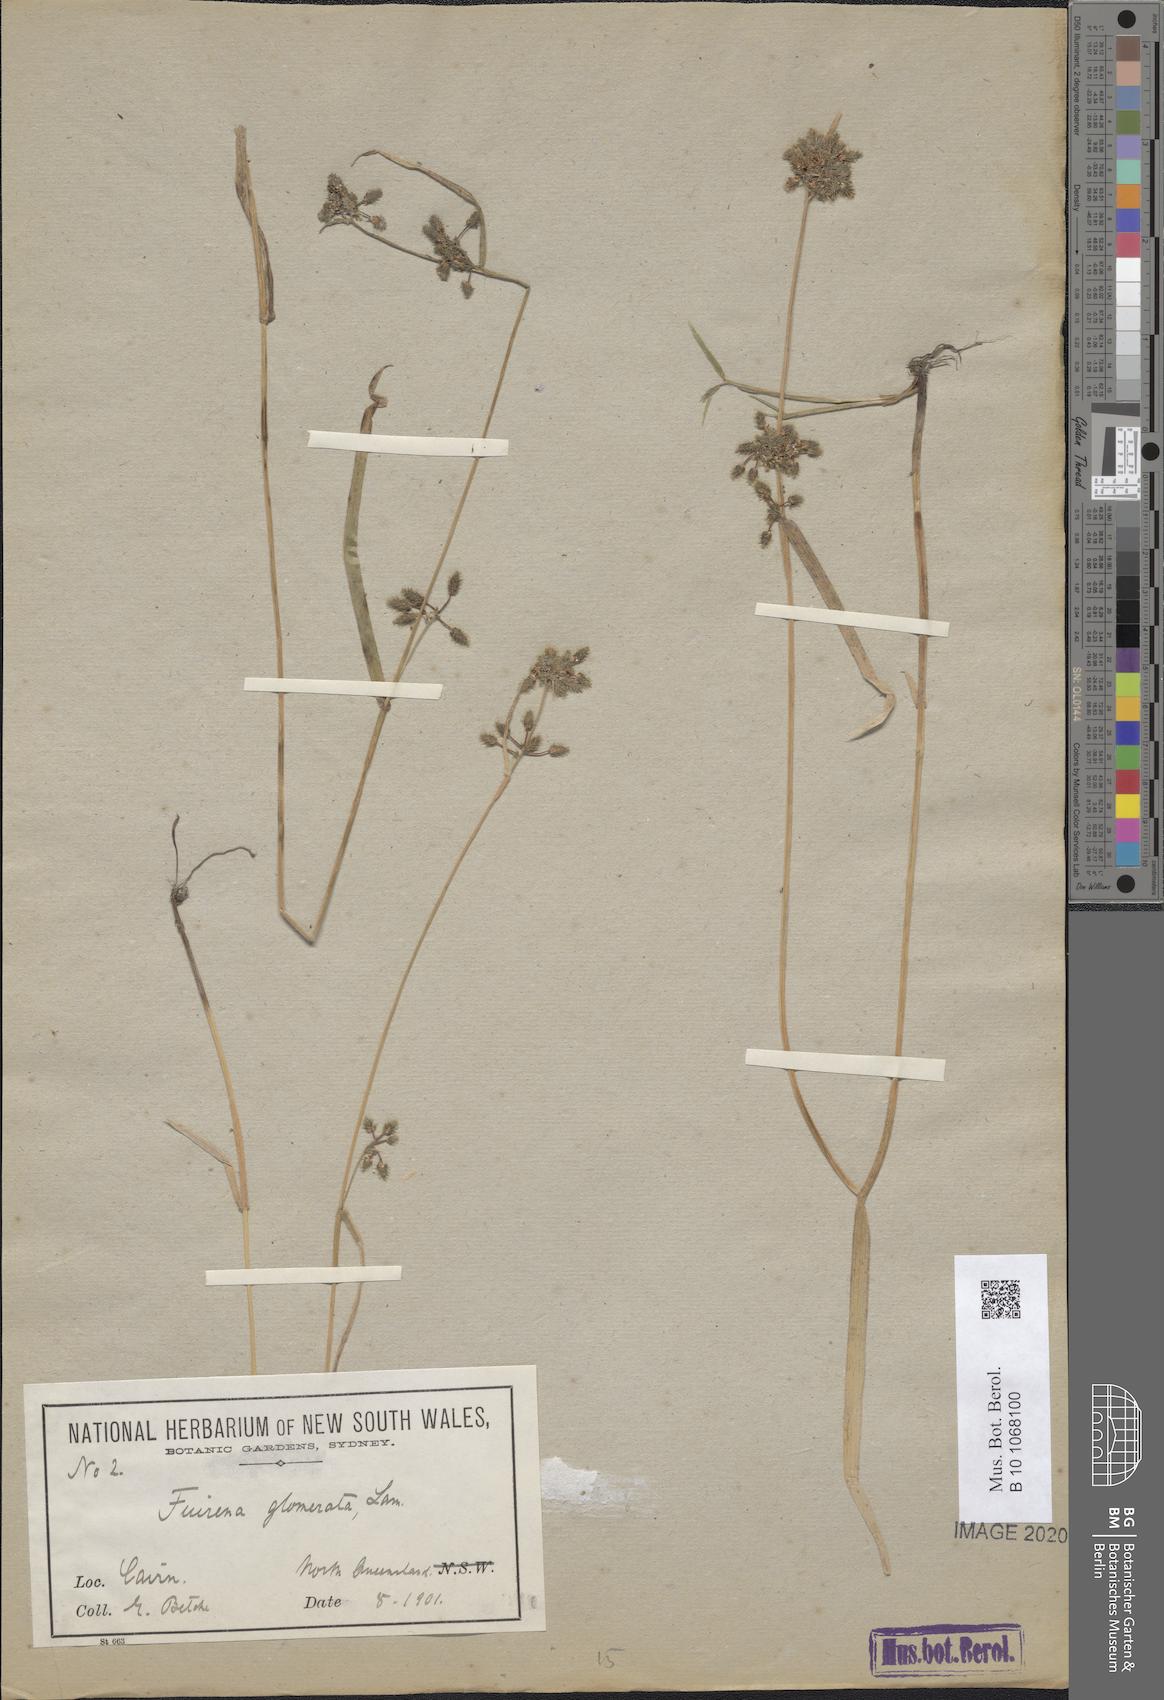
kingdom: Plantae
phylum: Tracheophyta
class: Liliopsida
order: Poales
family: Cyperaceae
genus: Fuirena
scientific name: Fuirena ciliaris
